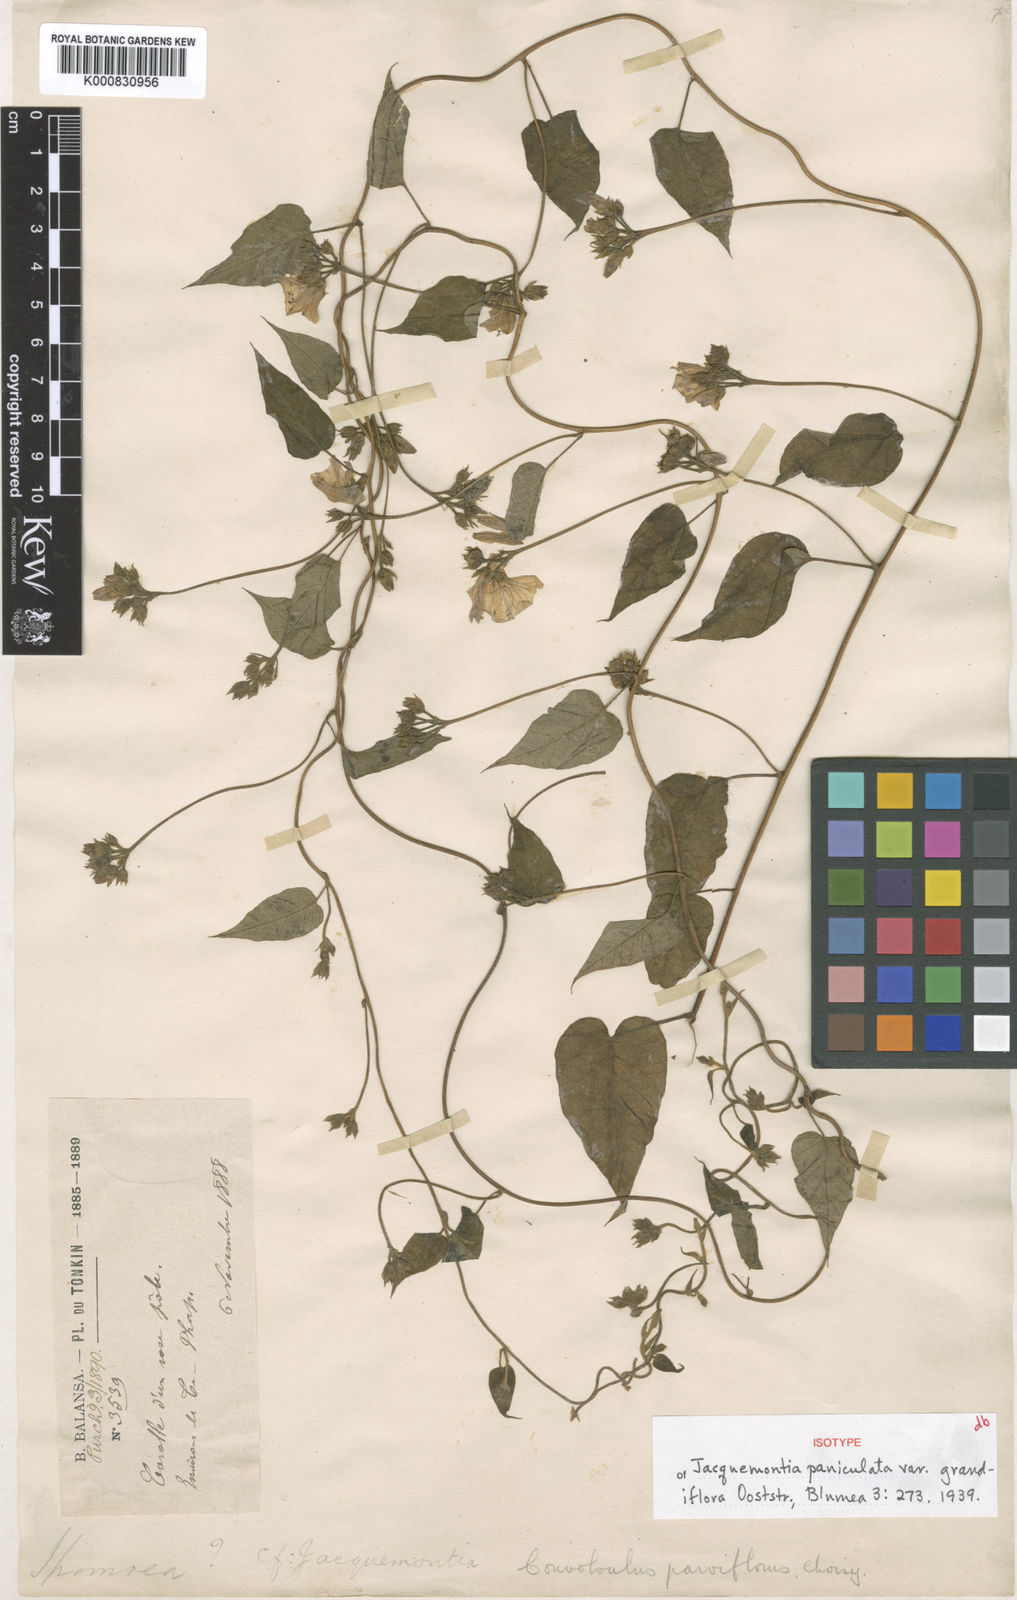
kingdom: Plantae
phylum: Tracheophyta
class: Magnoliopsida
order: Solanales
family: Convolvulaceae
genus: Jacquemontia
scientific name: Jacquemontia paniculata
